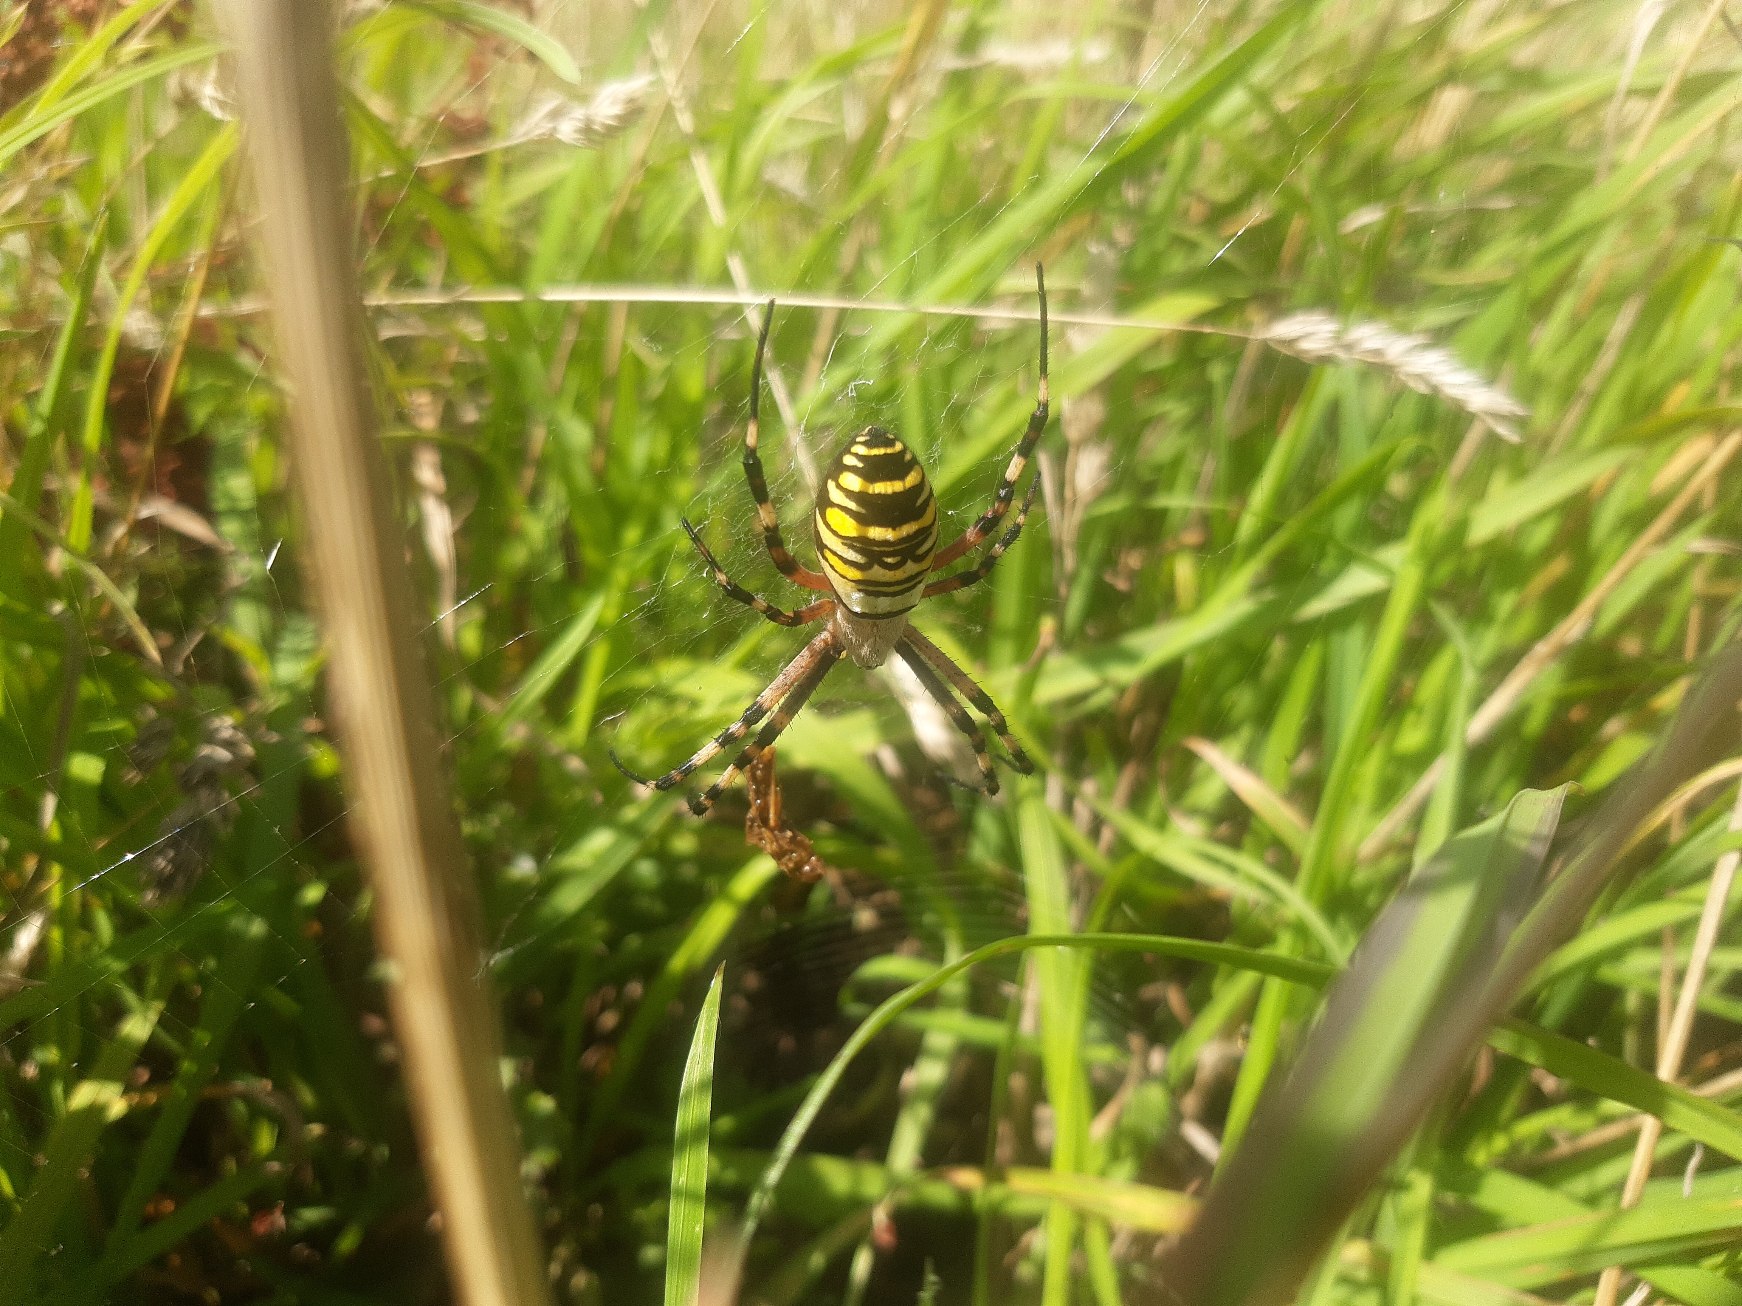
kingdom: Animalia
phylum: Arthropoda
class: Arachnida
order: Araneae
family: Araneidae
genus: Argiope
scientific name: Argiope bruennichi
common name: Hvepseedderkop
